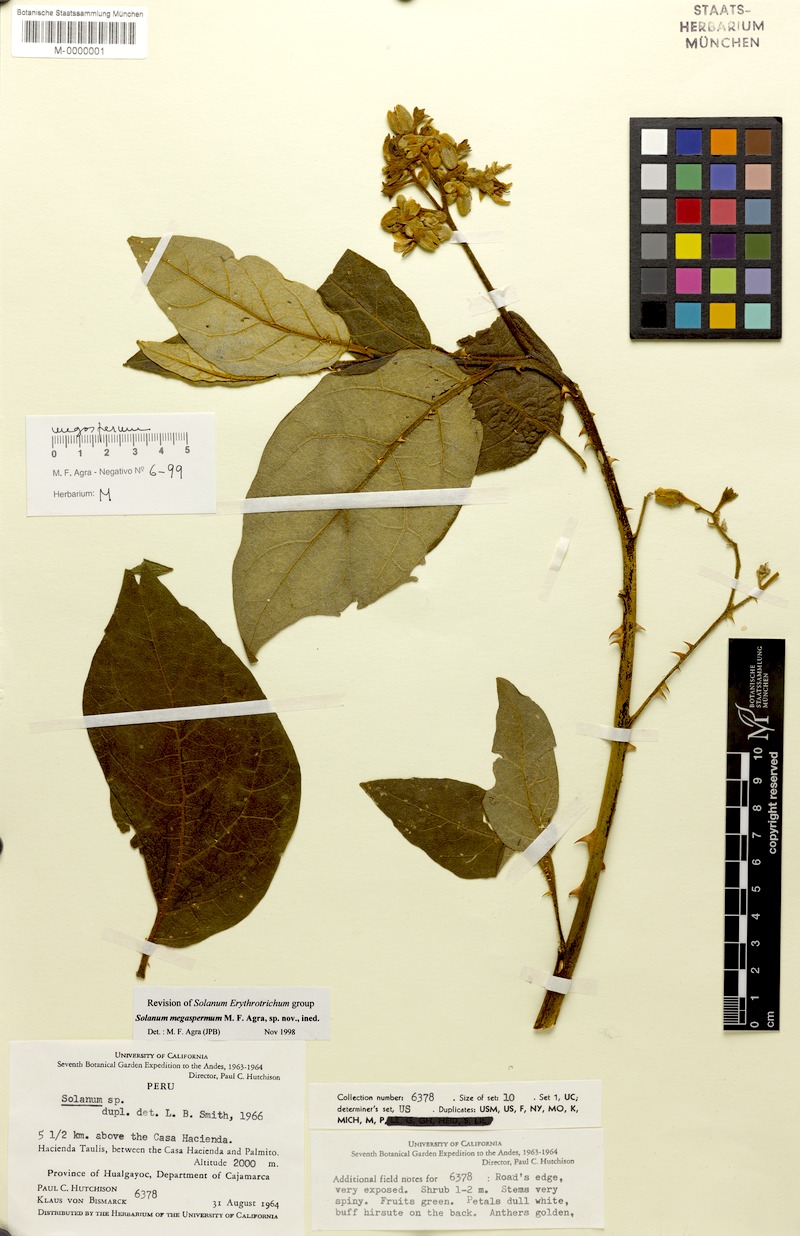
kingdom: Plantae
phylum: Tracheophyta
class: Magnoliopsida
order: Solanales
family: Solanaceae
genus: Solanum
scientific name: Solanum megaspermum
